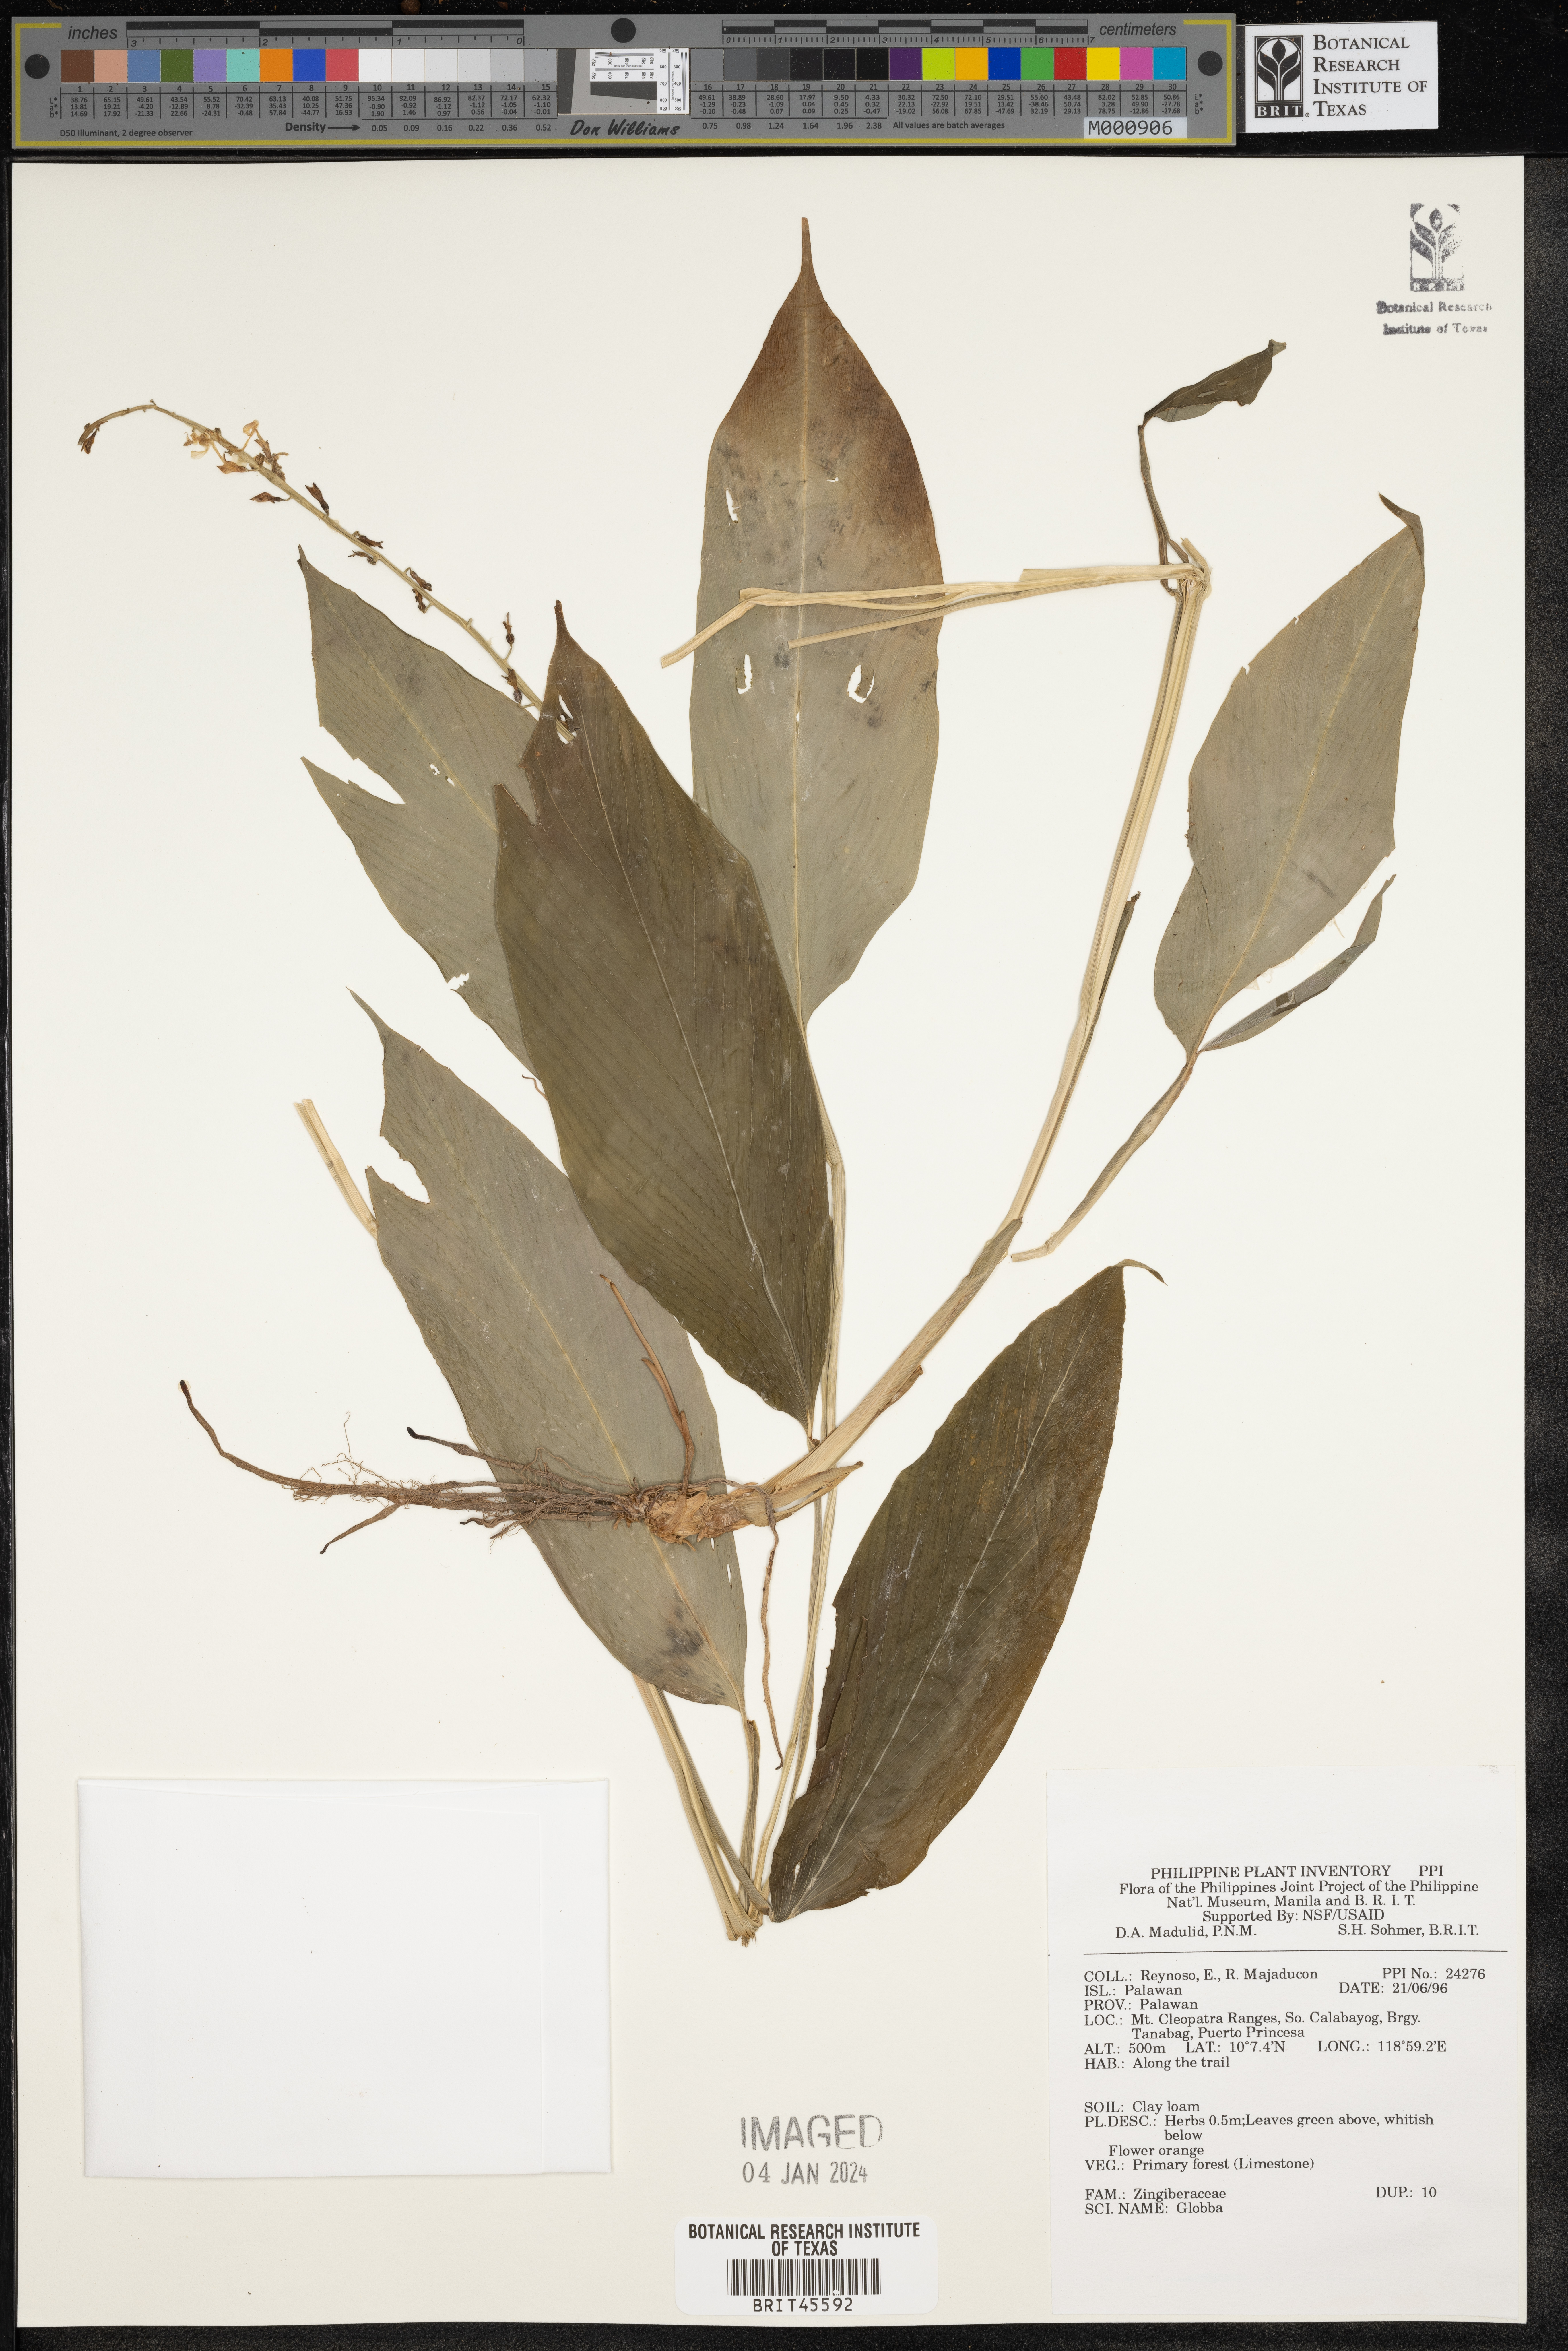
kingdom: Plantae
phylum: Tracheophyta
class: Liliopsida
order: Zingiberales
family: Zingiberaceae
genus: Globba
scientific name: Globba
